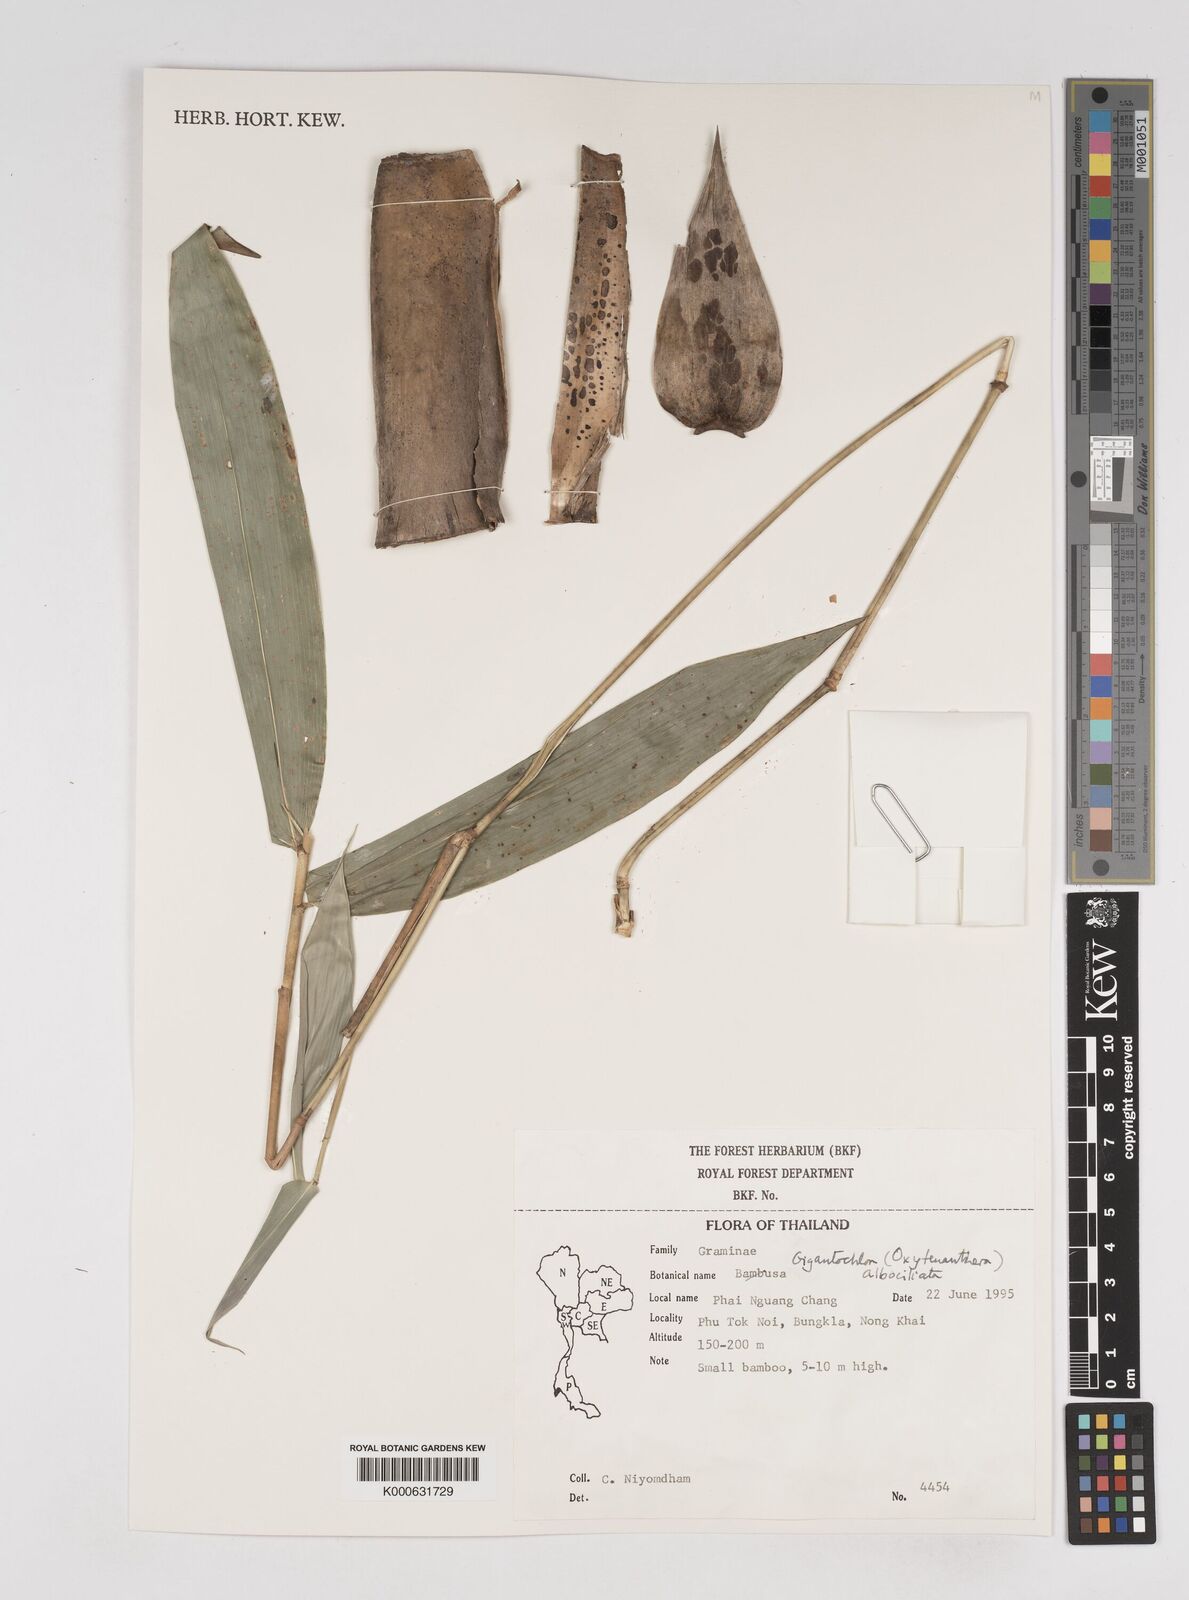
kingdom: Plantae
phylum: Tracheophyta
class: Liliopsida
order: Poales
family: Poaceae
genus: Gigantochloa
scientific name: Gigantochloa albociliata
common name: White-fringe gigantochloa
